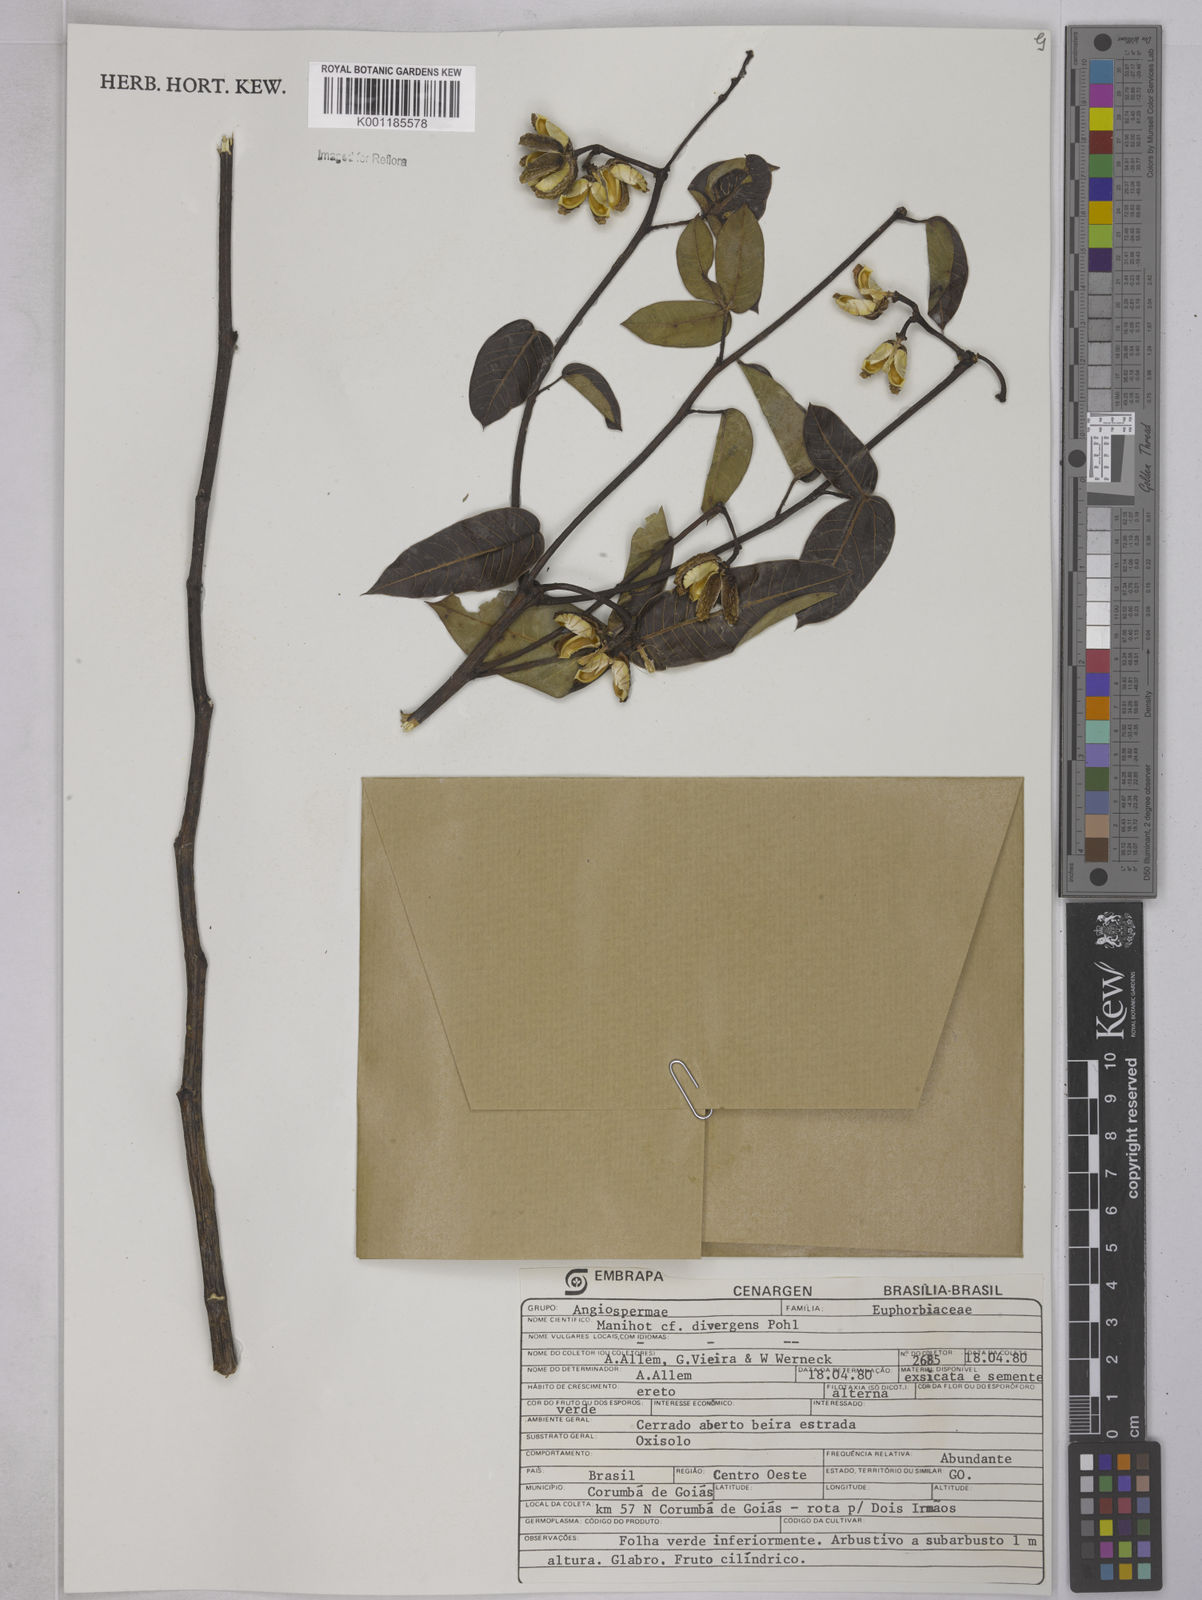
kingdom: Plantae
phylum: Tracheophyta
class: Magnoliopsida
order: Malpighiales
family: Euphorbiaceae
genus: Manihot
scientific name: Manihot divergens
